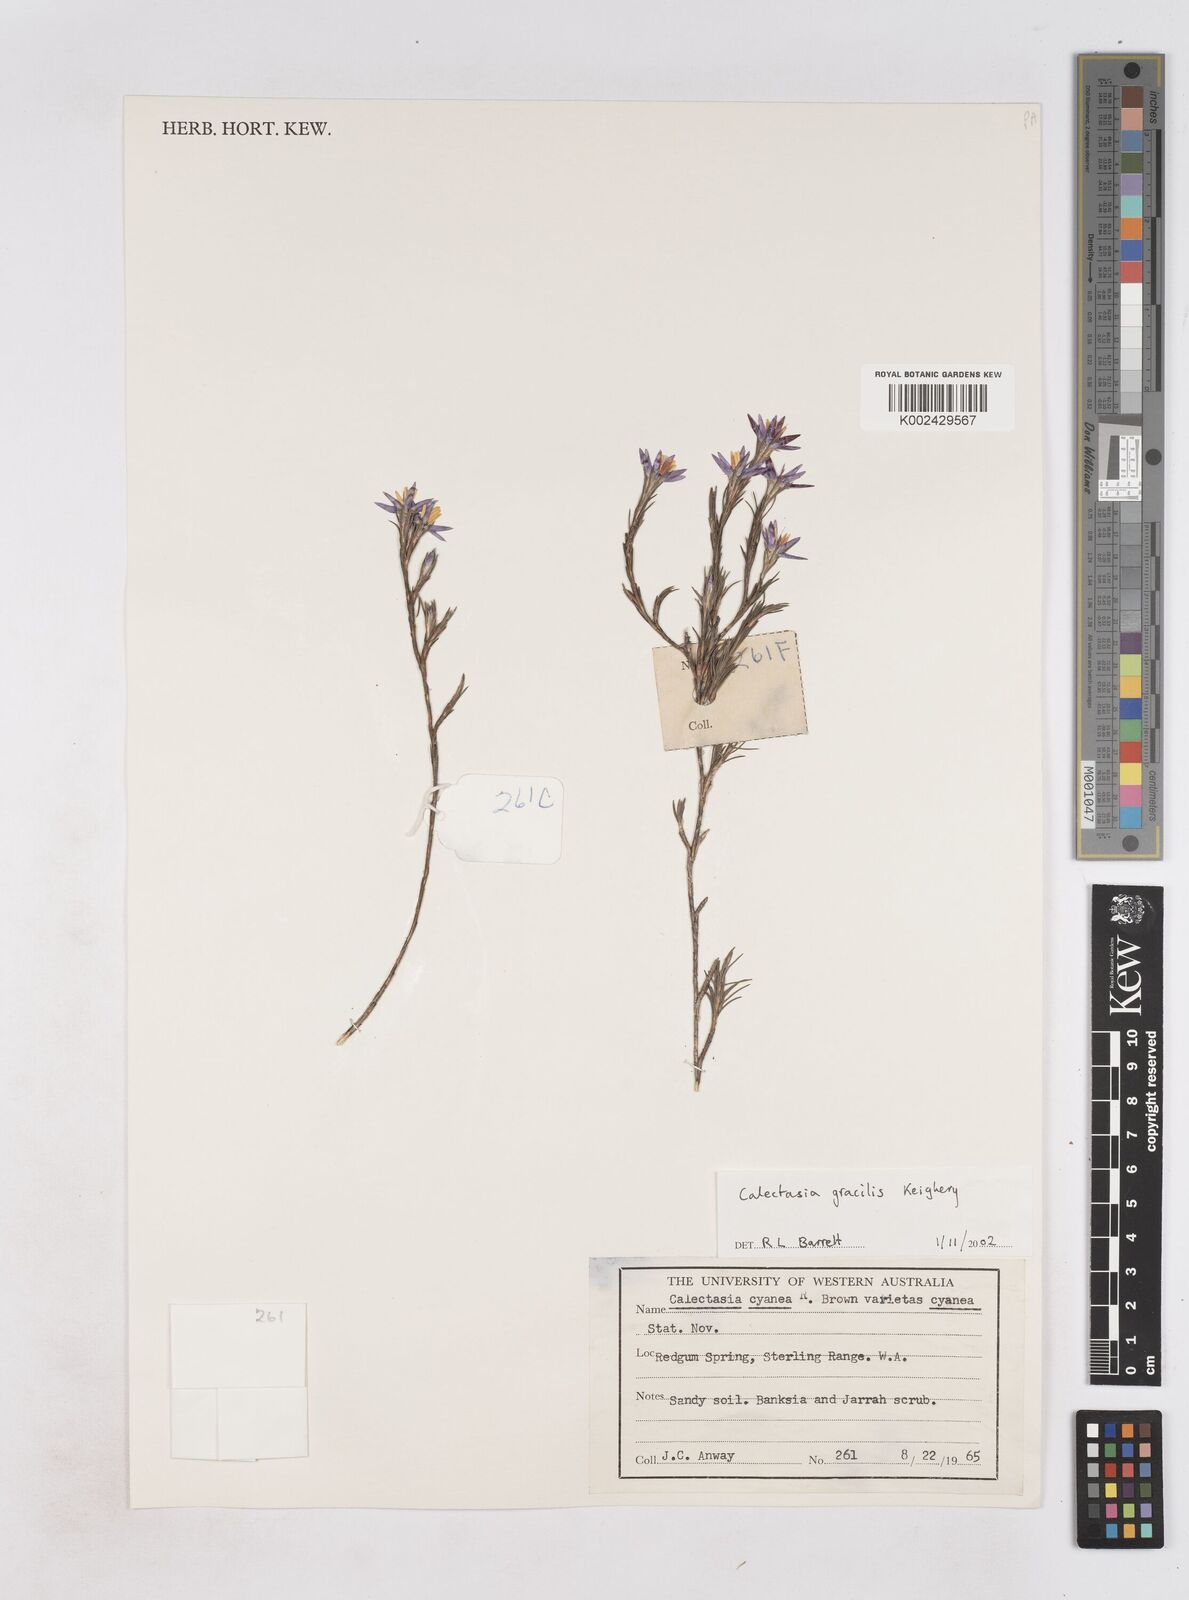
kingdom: Plantae
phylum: Tracheophyta
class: Liliopsida
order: Arecales
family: Dasypogonaceae
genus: Calectasia
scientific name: Calectasia gracilis
